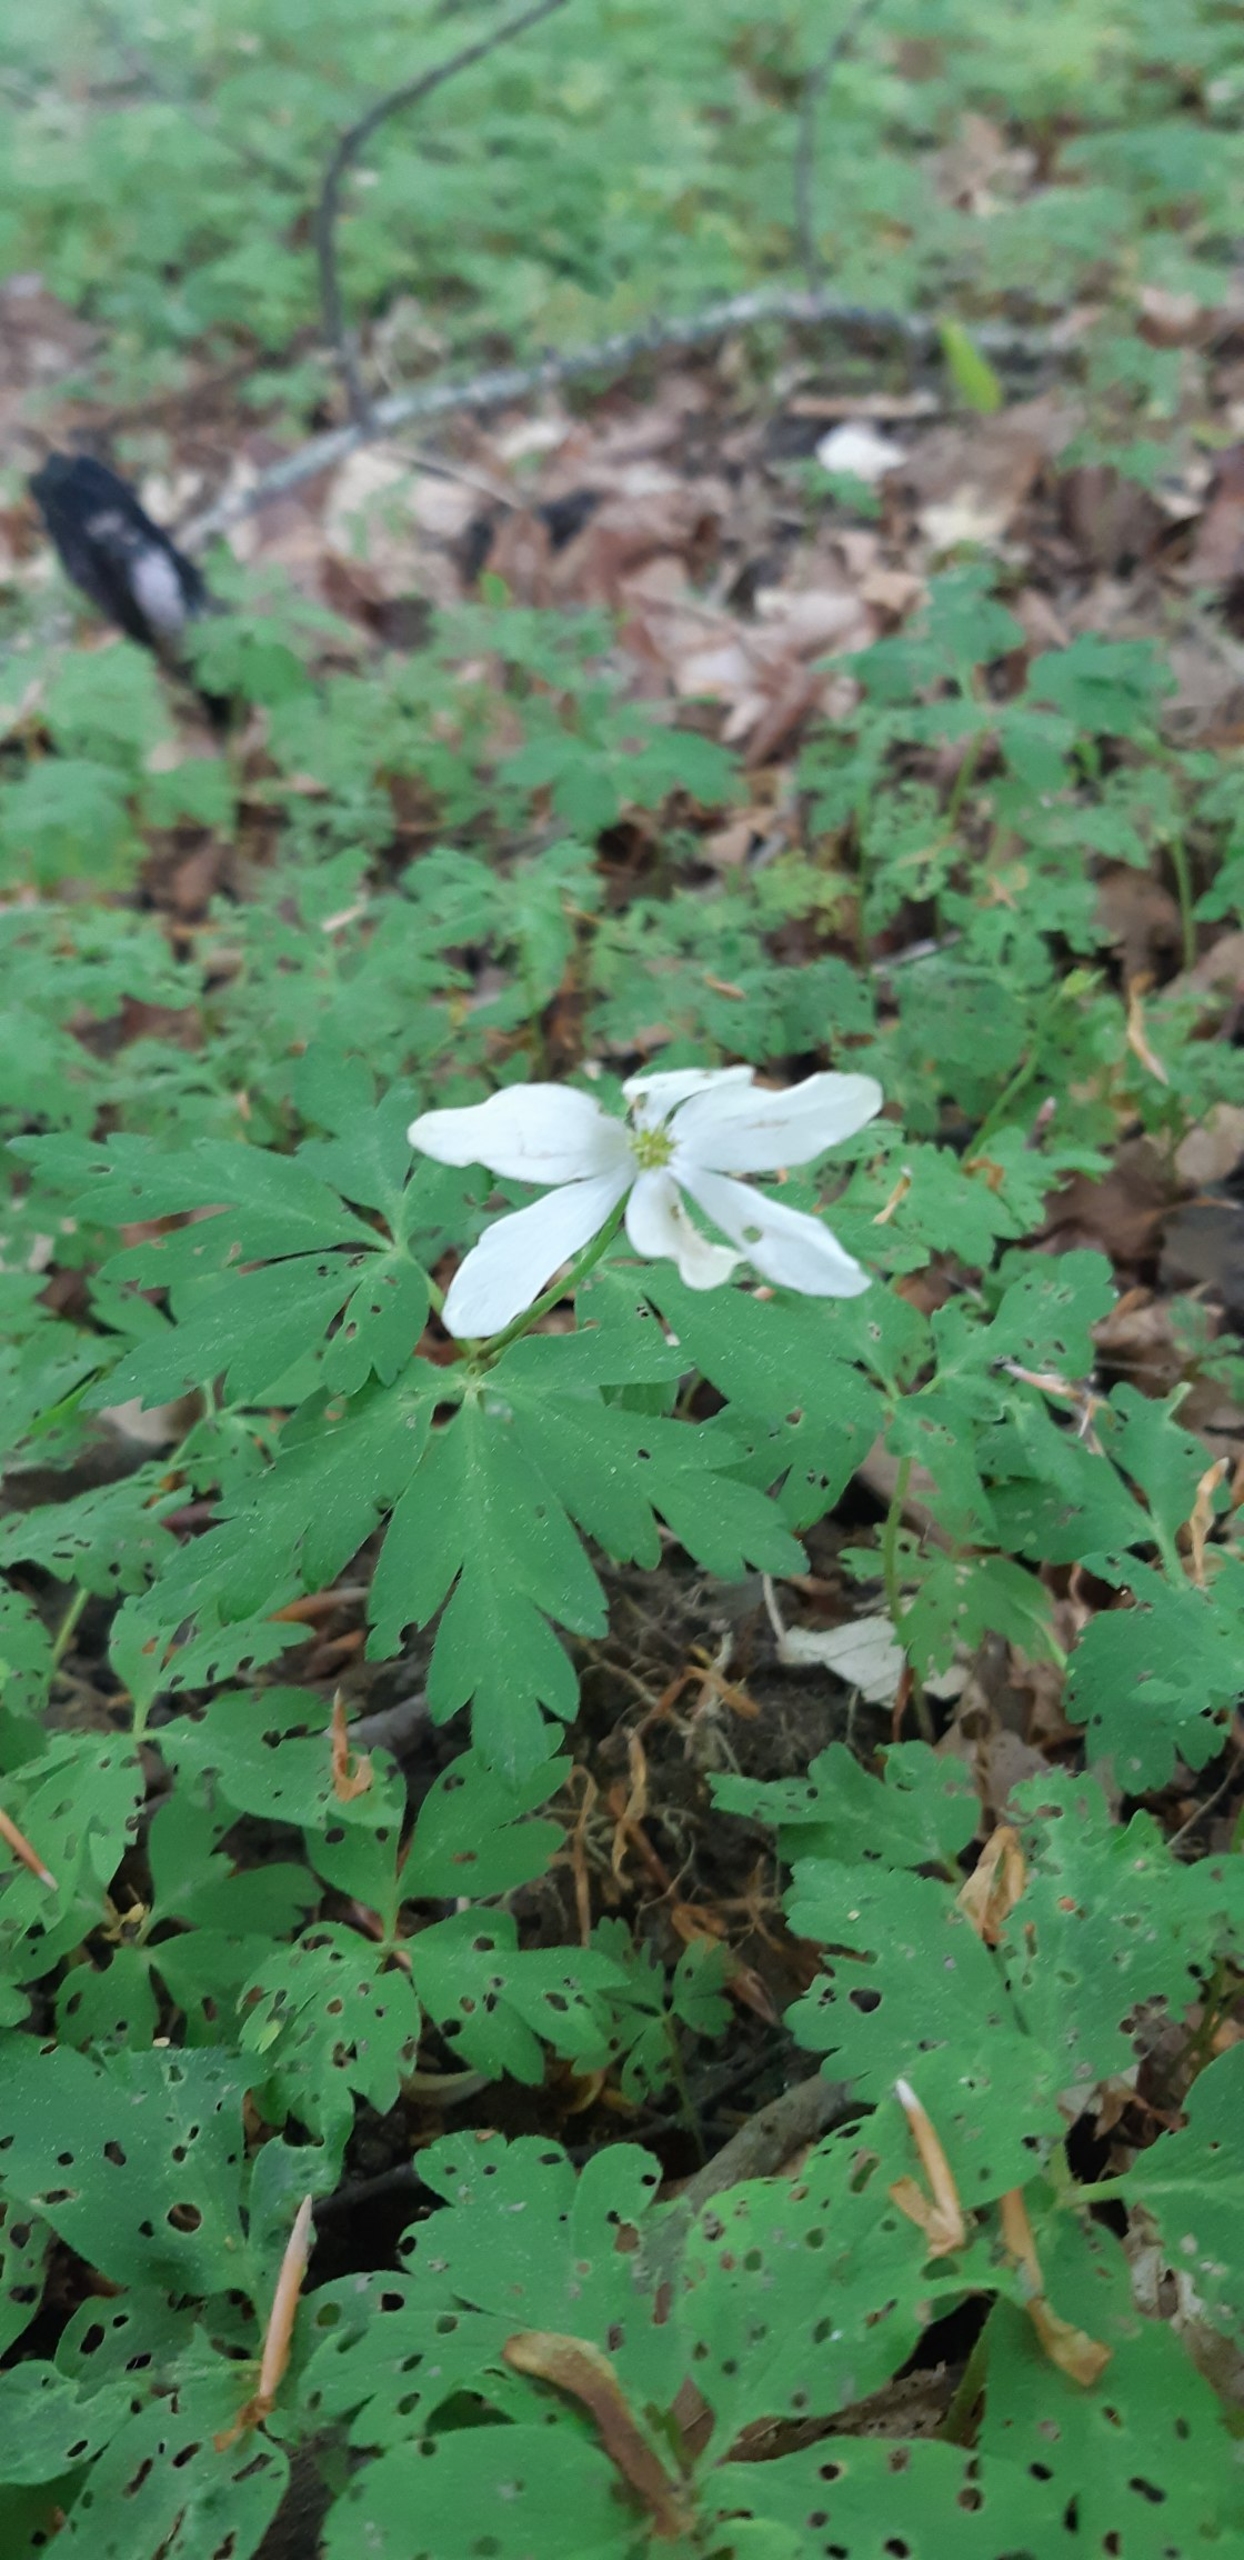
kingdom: Plantae
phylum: Tracheophyta
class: Magnoliopsida
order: Ranunculales
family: Ranunculaceae
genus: Anemone
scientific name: Anemone nemorosa
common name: Hvid anemone
